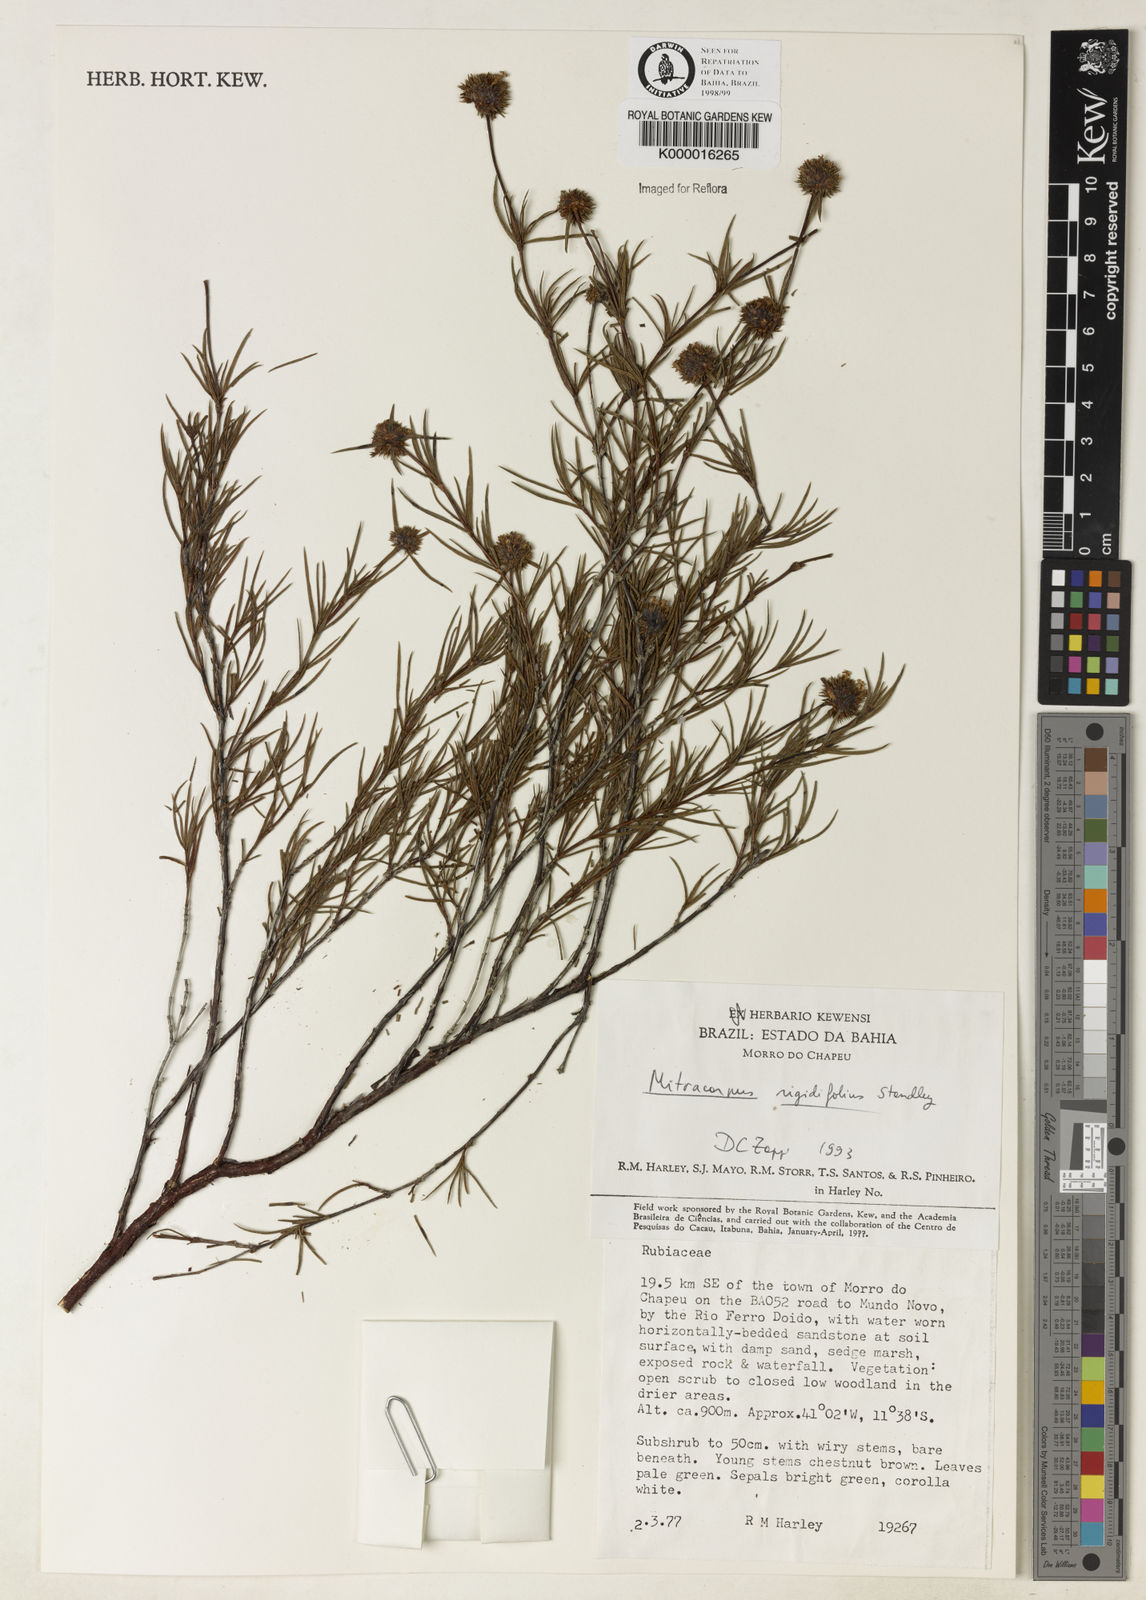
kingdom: Plantae
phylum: Tracheophyta
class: Magnoliopsida
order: Gentianales
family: Rubiaceae
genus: Mitracarpus
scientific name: Mitracarpus rigidifolius
